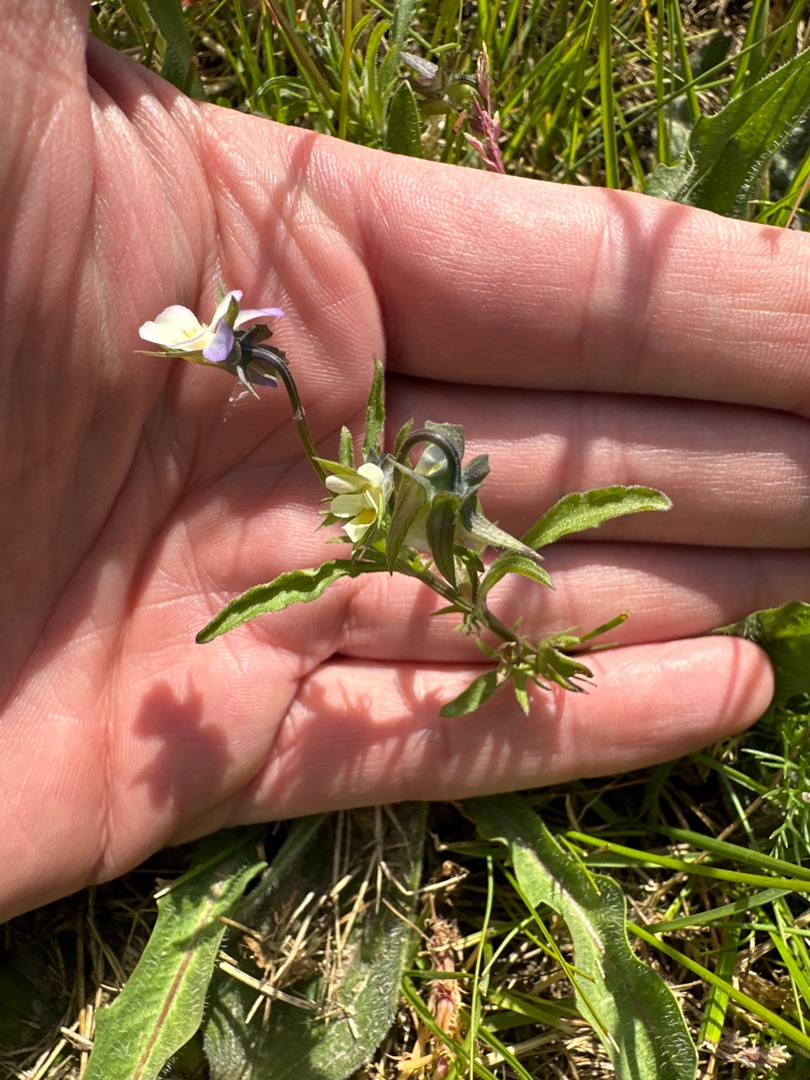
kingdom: Plantae
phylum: Tracheophyta
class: Magnoliopsida
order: Malpighiales
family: Violaceae
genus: Viola
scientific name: Viola arvensis
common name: Ager-stedmoderblomst
